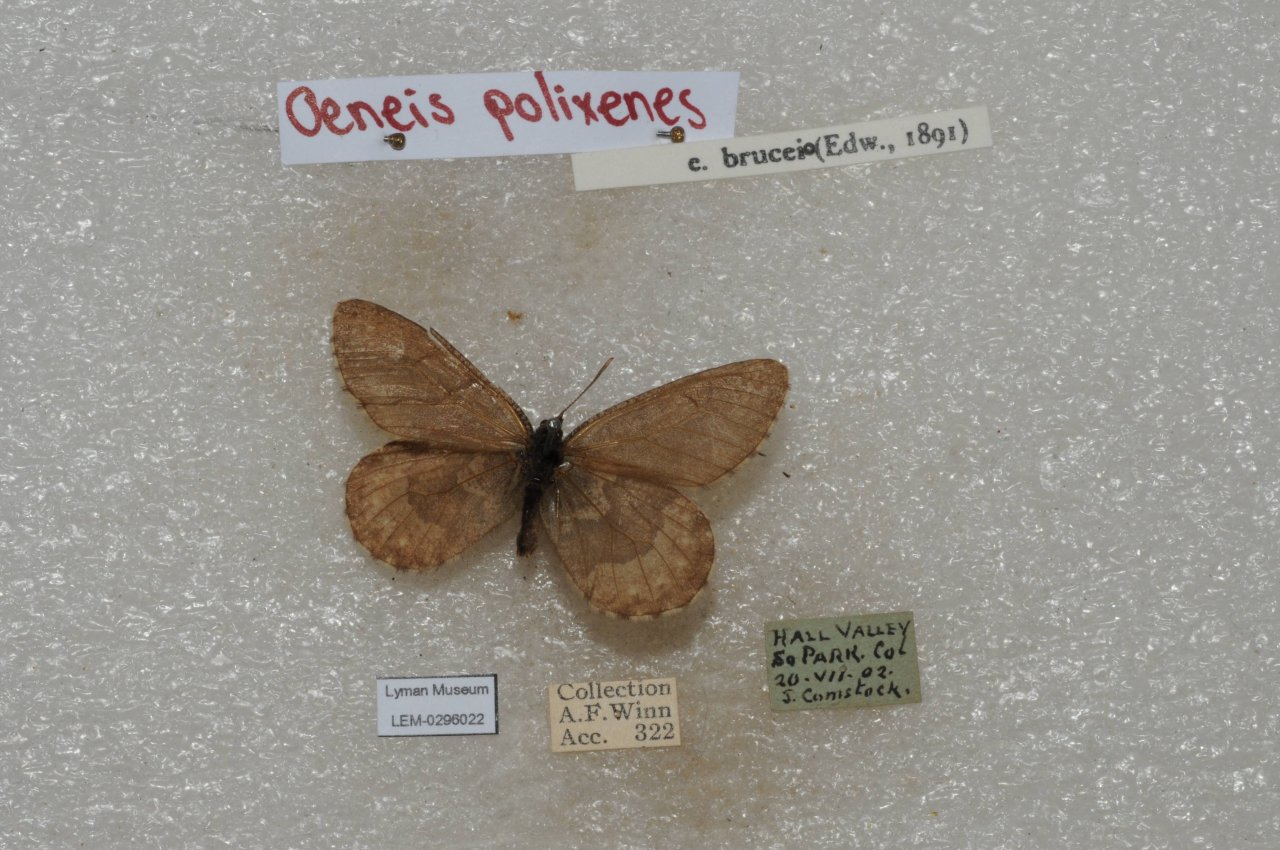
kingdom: Animalia
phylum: Arthropoda
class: Insecta
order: Lepidoptera
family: Nymphalidae
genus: Oeneis
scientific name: Oeneis bore
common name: Polixenes Arctic
